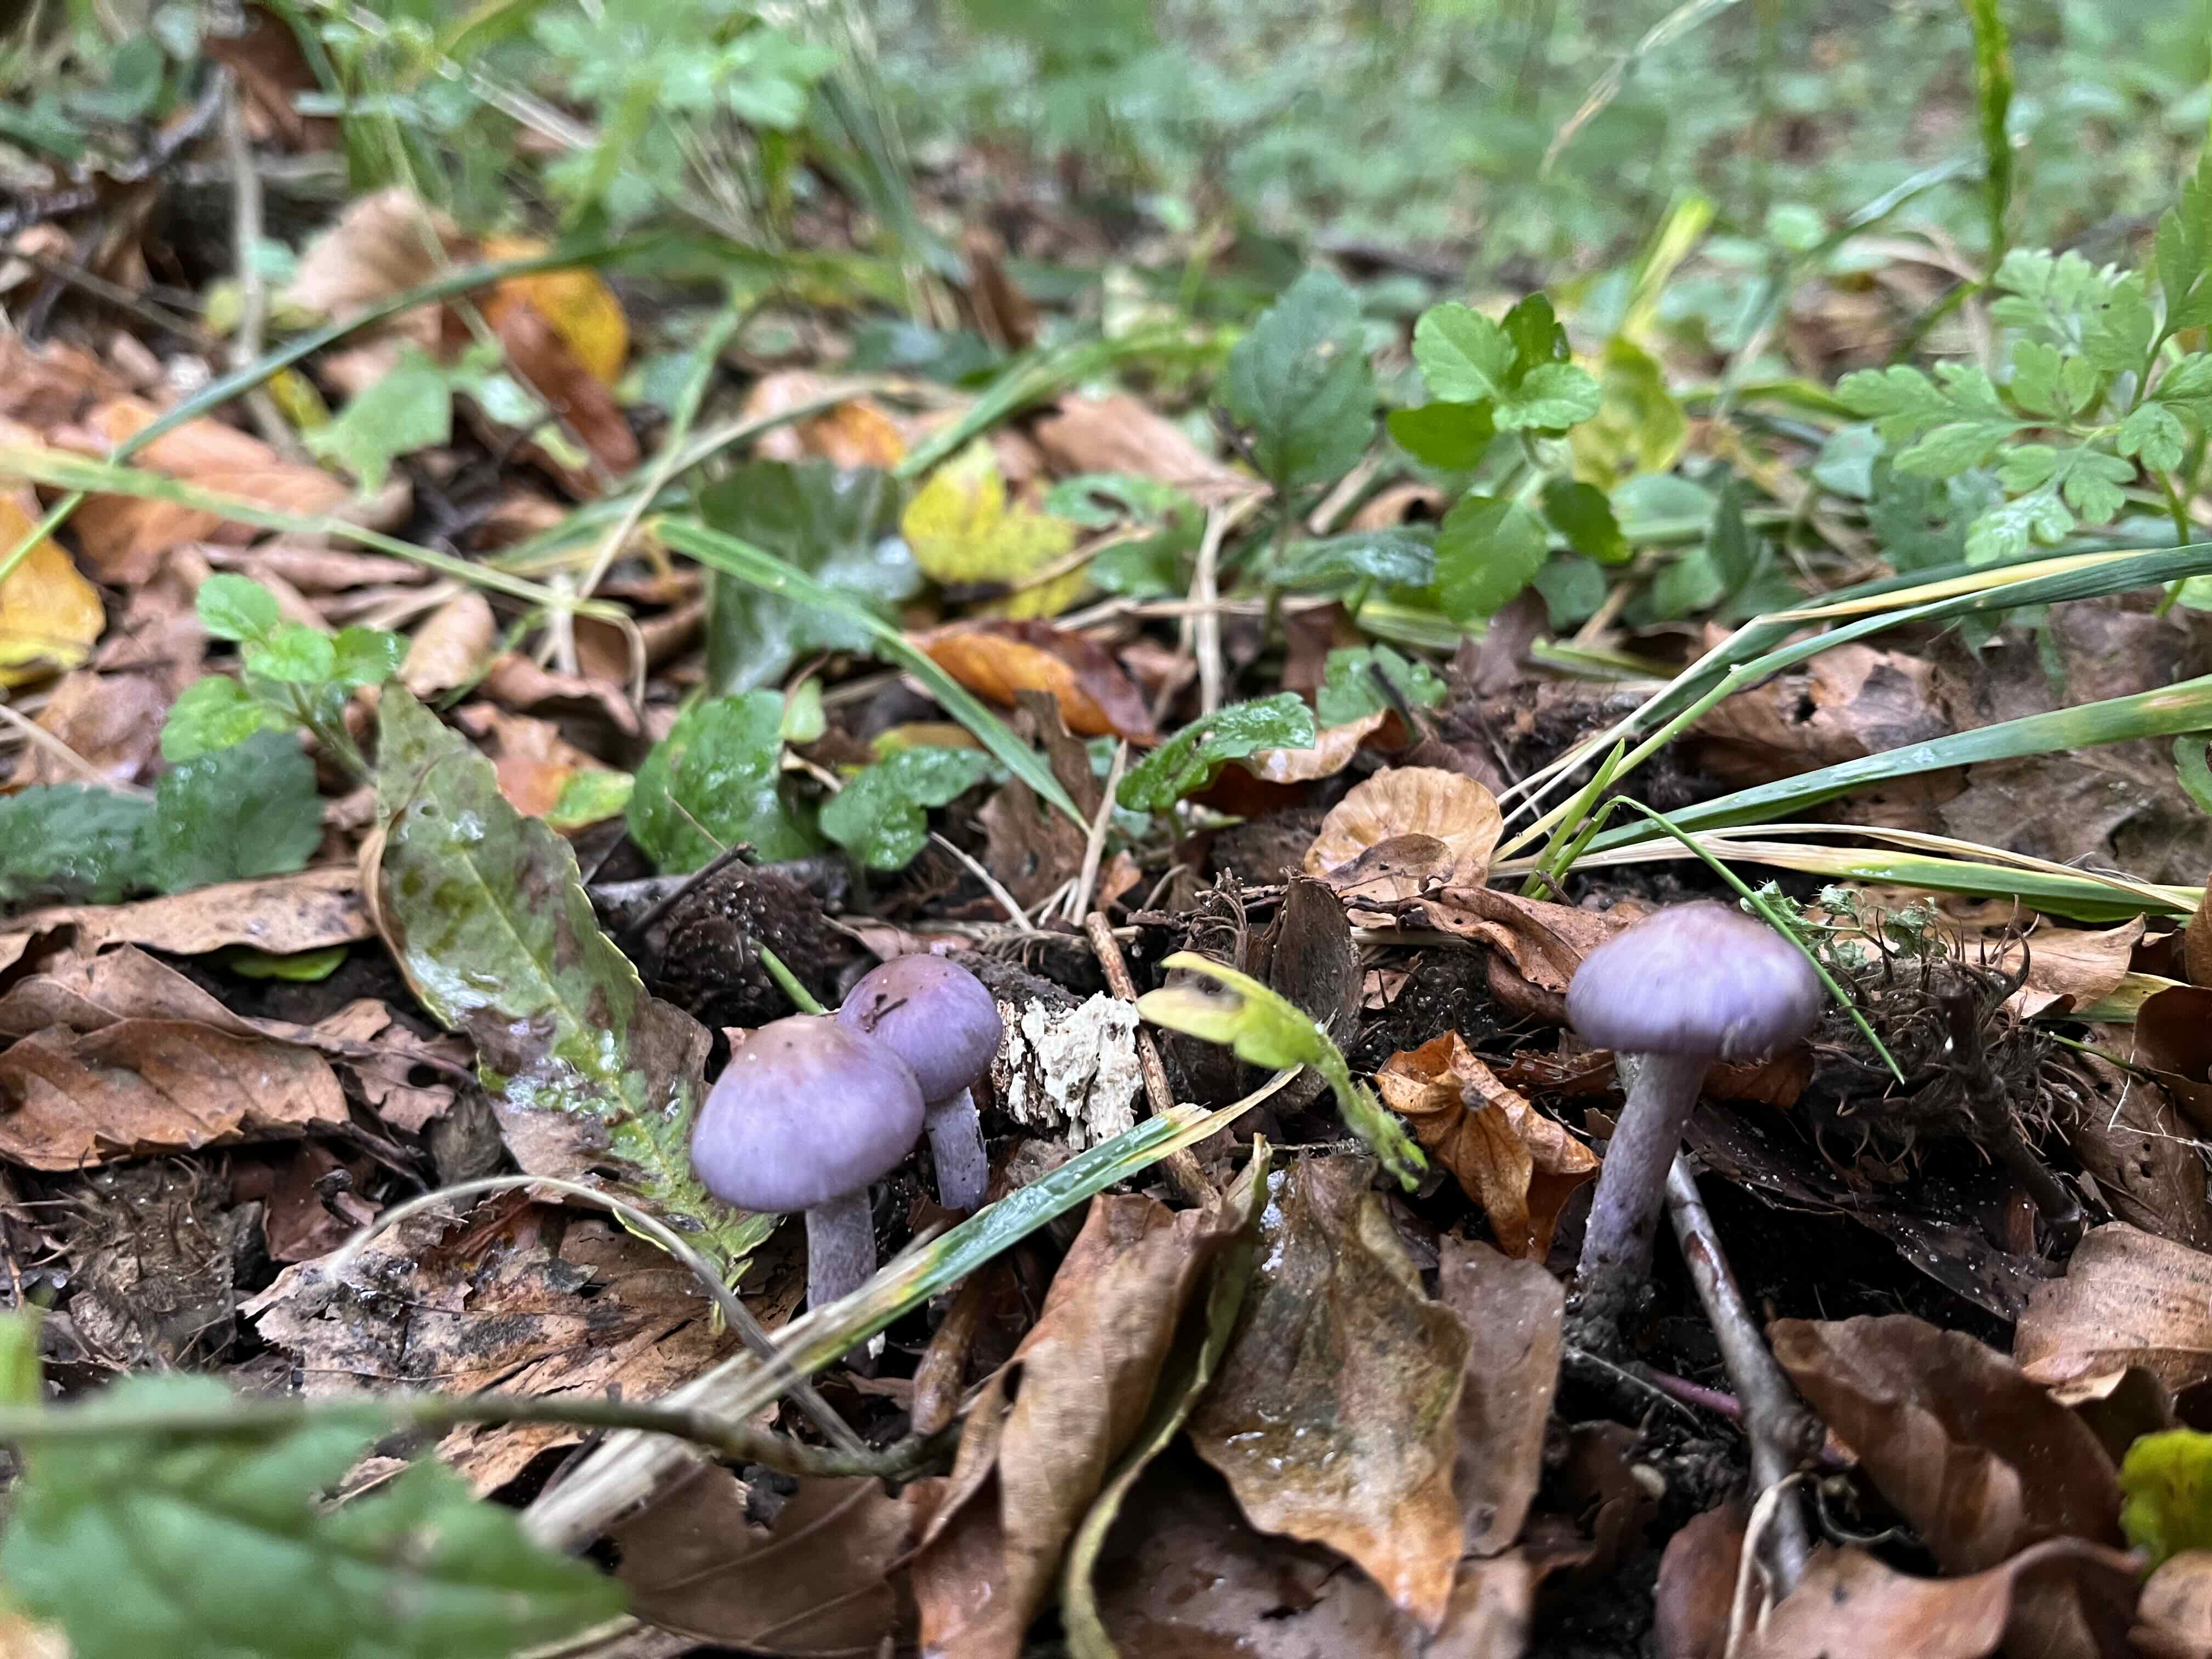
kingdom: Fungi
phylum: Basidiomycota
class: Agaricomycetes
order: Agaricales
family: Inocybaceae
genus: Inocybe
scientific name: Inocybe geophylla
